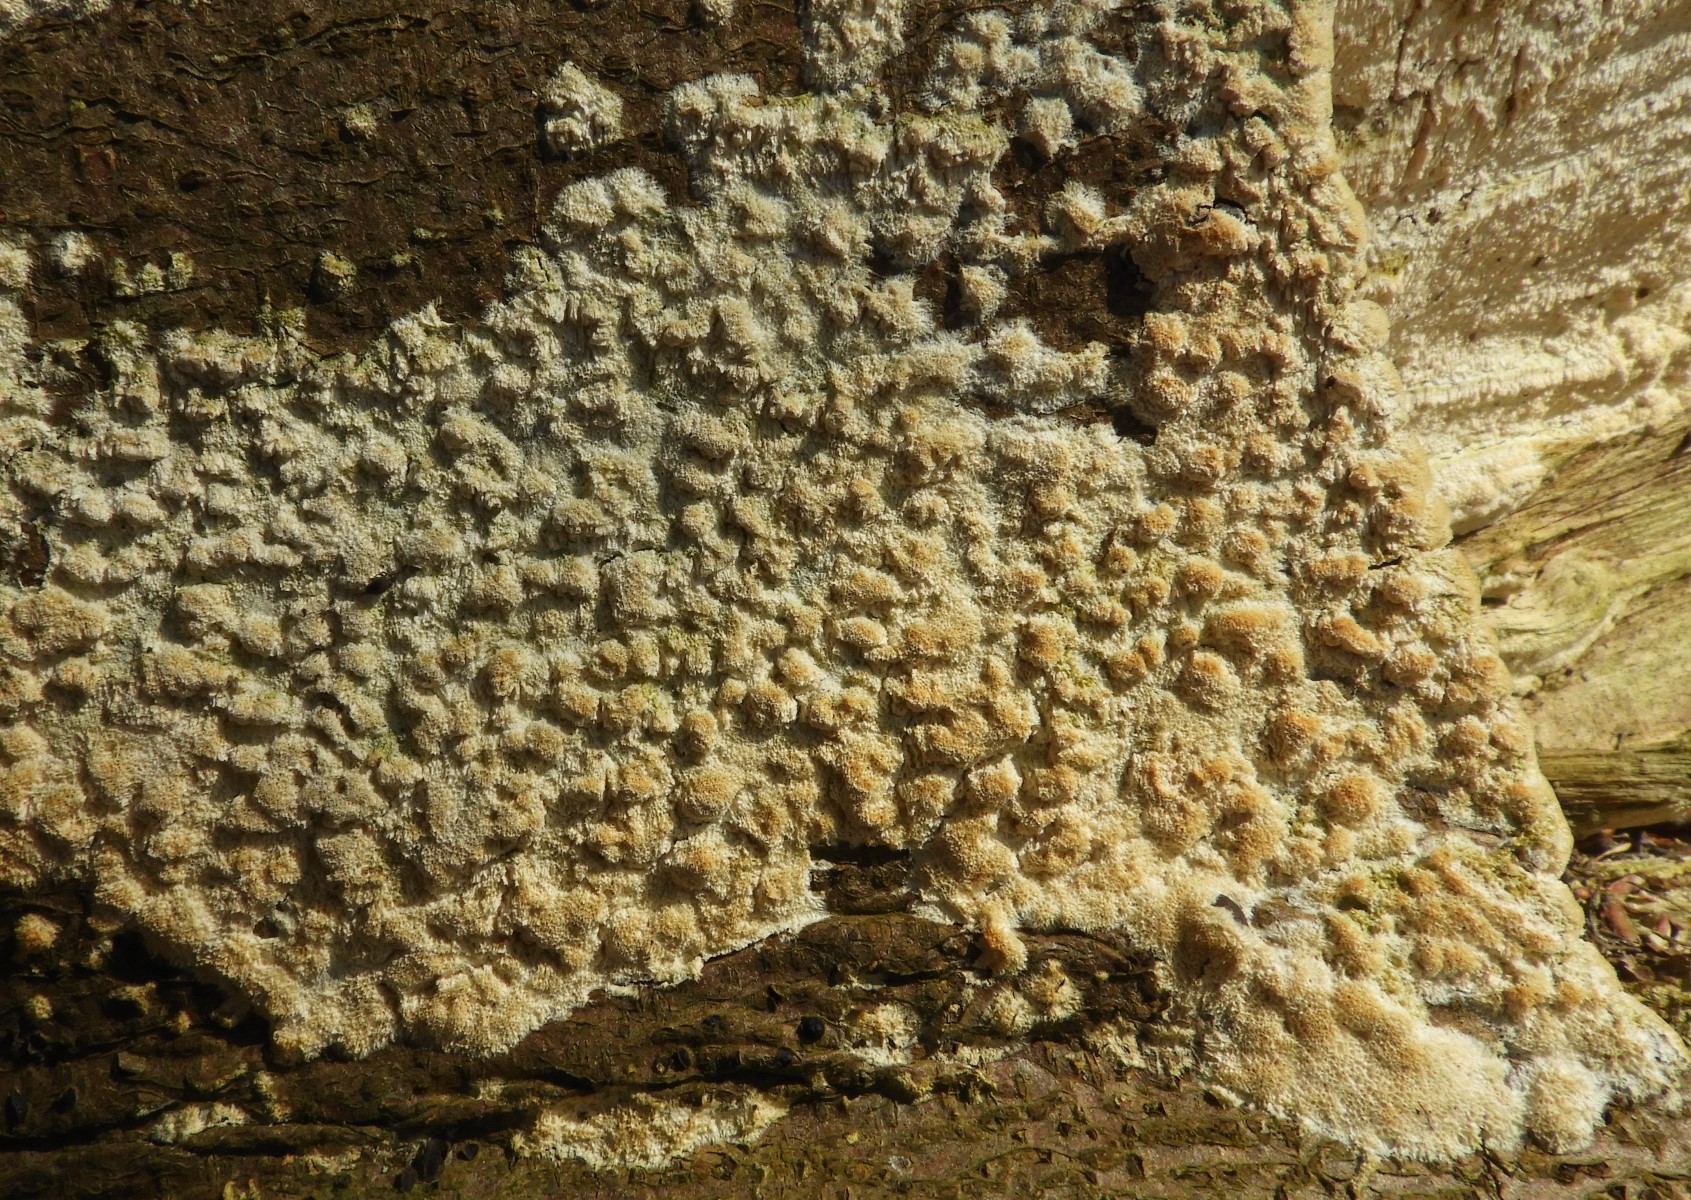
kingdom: Fungi
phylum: Basidiomycota
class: Agaricomycetes
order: Hymenochaetales
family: Schizoporaceae
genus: Xylodon
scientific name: Xylodon
